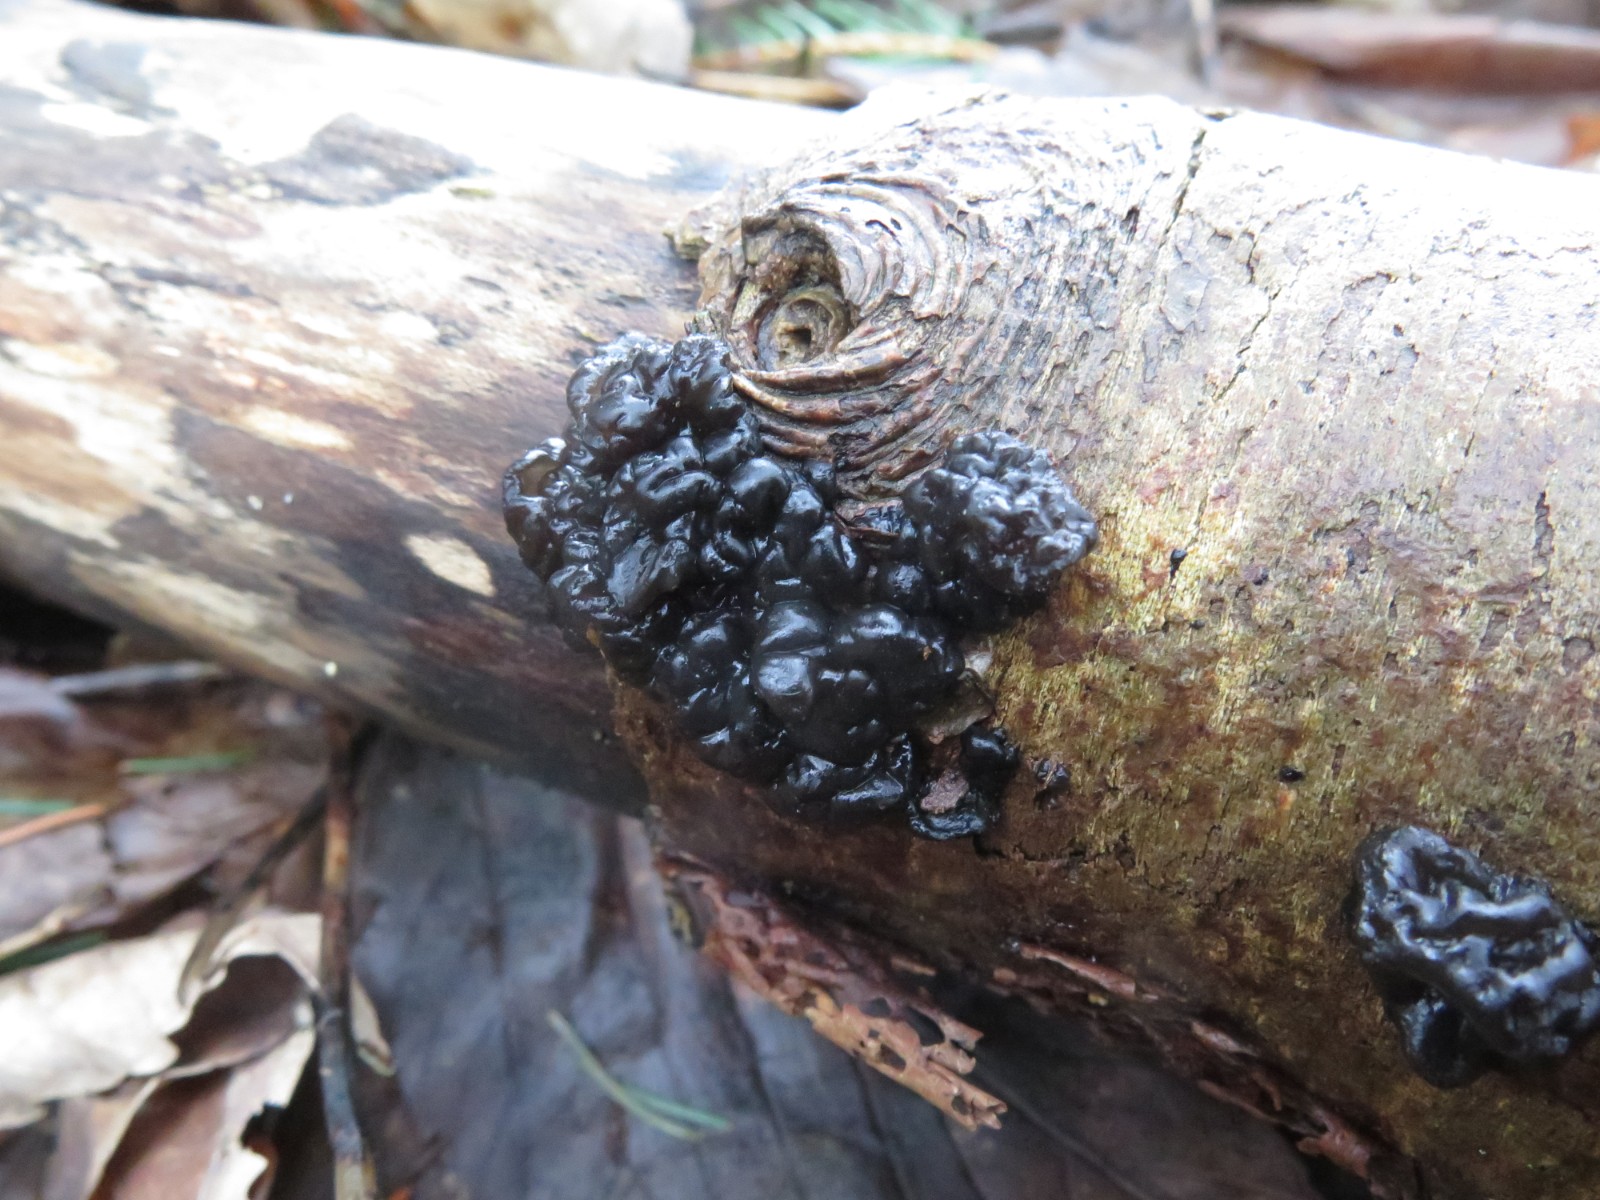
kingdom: Fungi
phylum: Basidiomycota
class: Agaricomycetes
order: Auriculariales
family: Auriculariaceae
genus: Exidia
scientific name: Exidia nigricans
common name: almindelig bævretop
